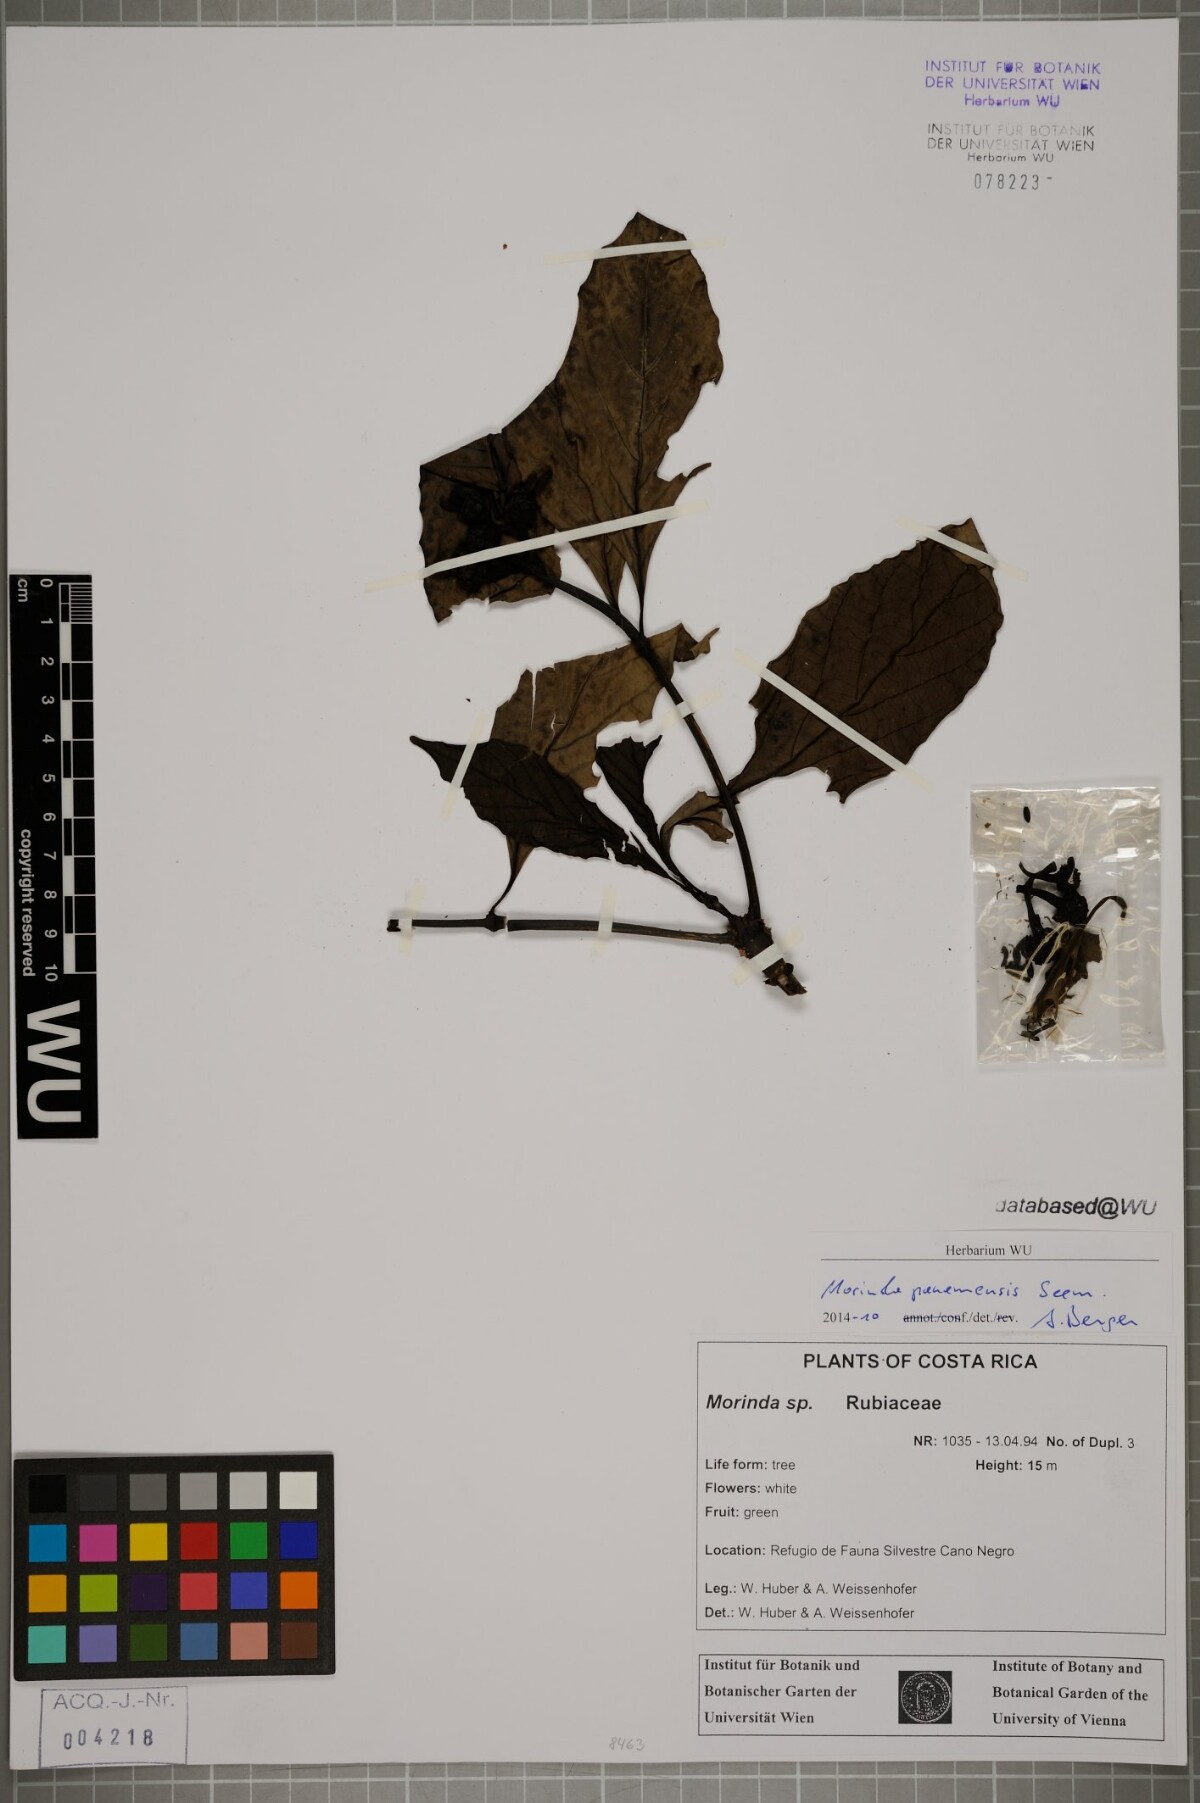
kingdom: Plantae
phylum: Tracheophyta
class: Magnoliopsida
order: Gentianales
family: Rubiaceae
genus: Morinda
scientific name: Morinda panamensis
